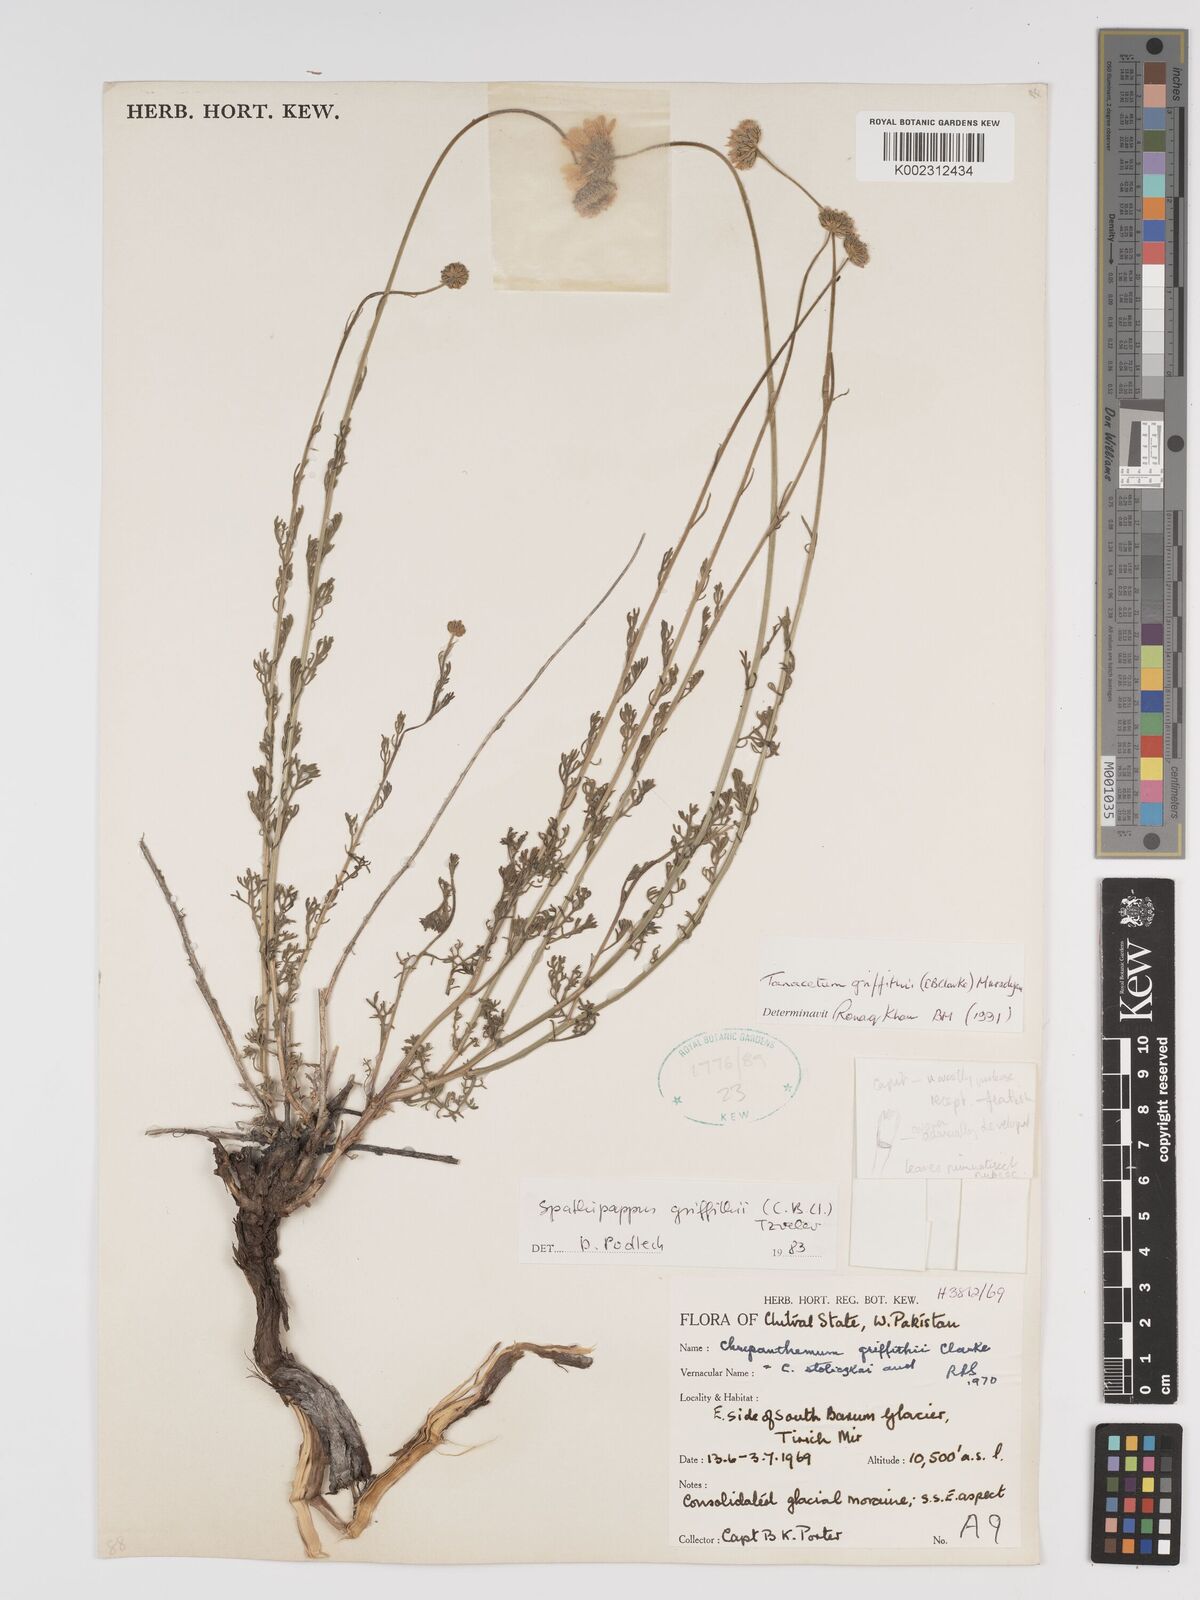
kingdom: Plantae
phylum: Tracheophyta
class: Magnoliopsida
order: Asterales
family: Asteraceae
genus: Tanacetum
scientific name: Tanacetum griffithii
